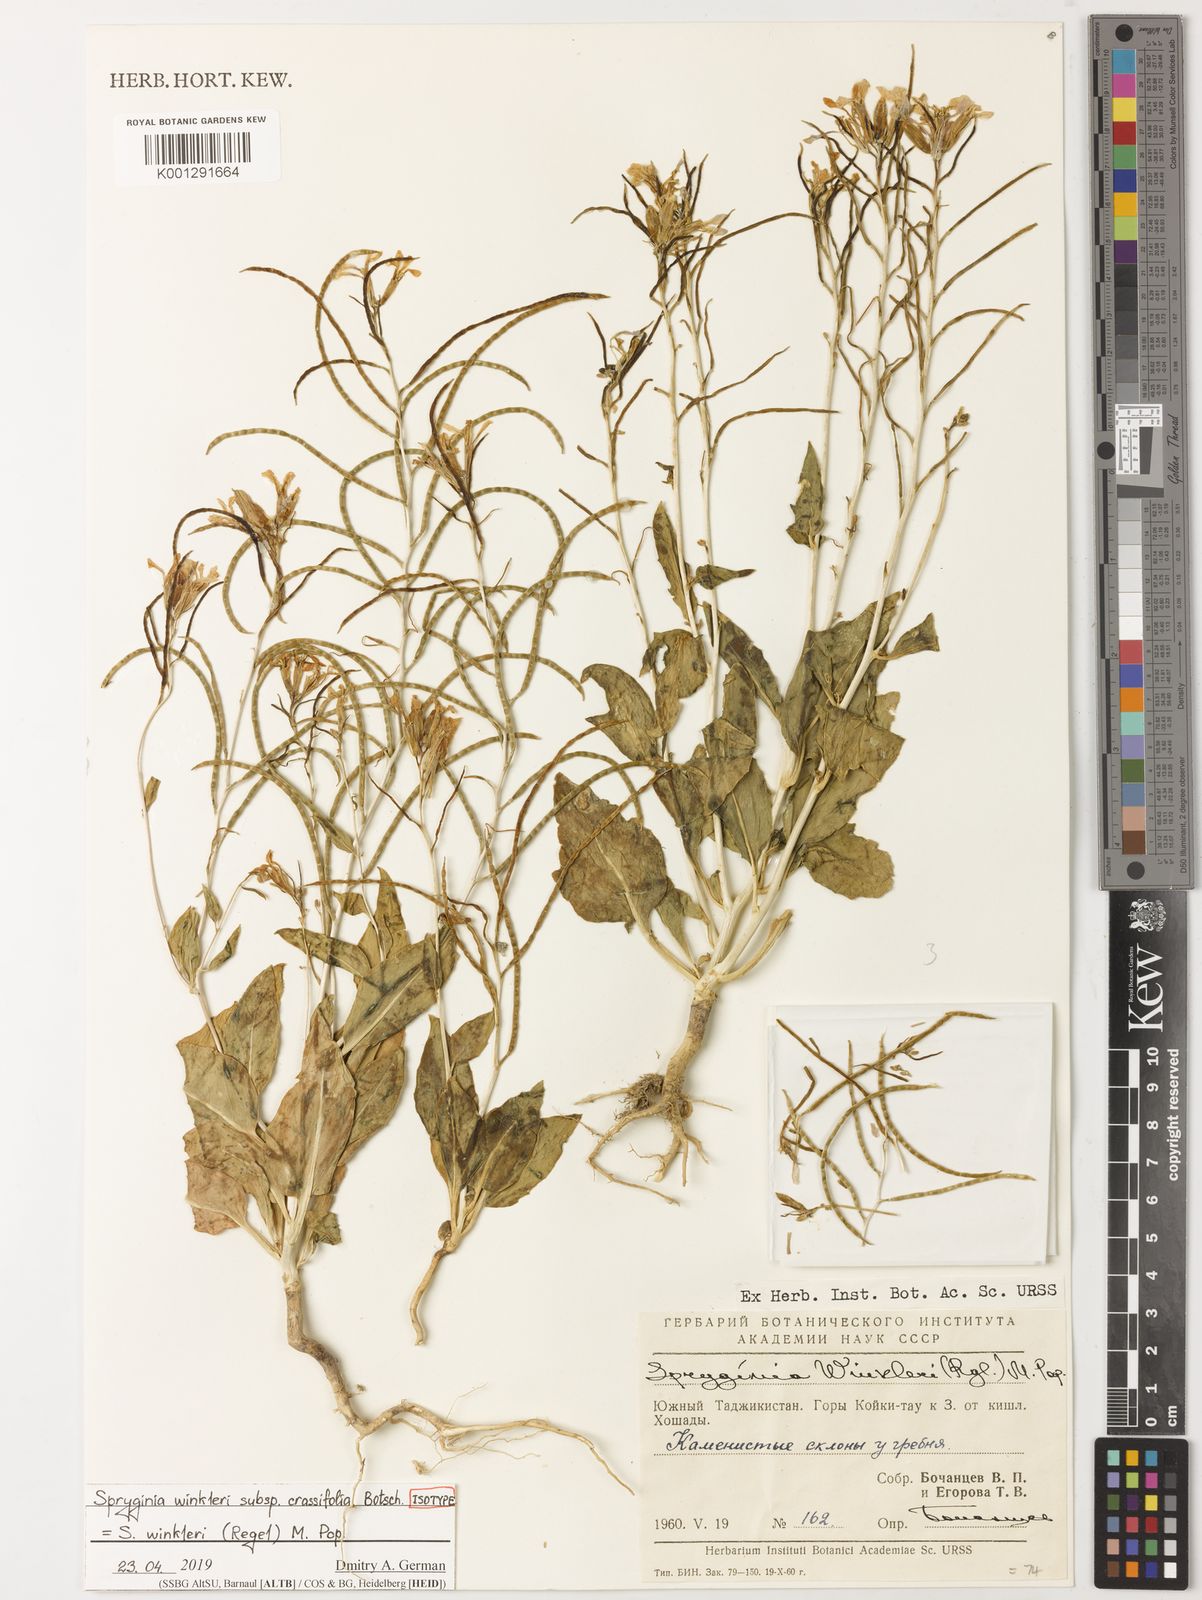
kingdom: Plantae
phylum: Tracheophyta
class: Magnoliopsida
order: Brassicales
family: Brassicaceae
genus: Spryginia
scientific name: Spryginia winkleri
